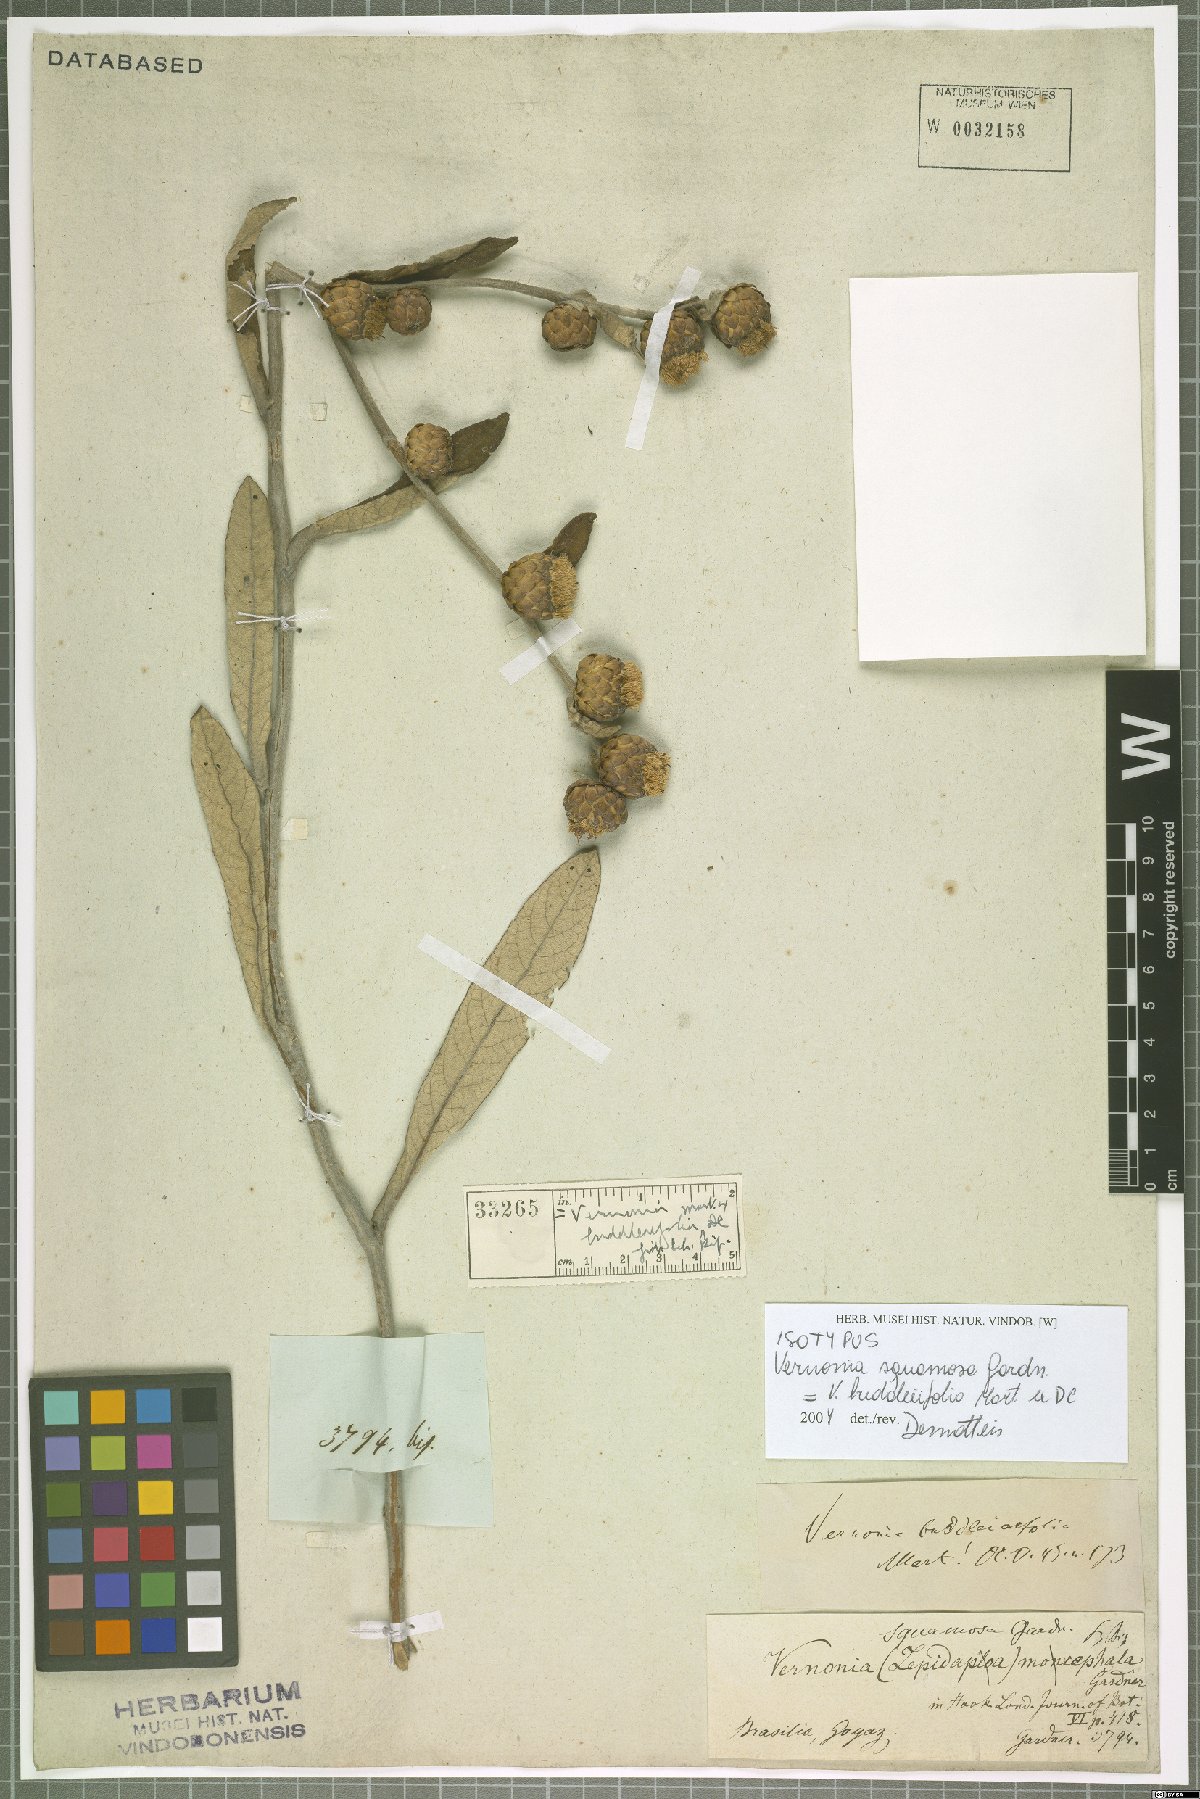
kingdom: Plantae
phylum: Tracheophyta
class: Magnoliopsida
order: Asterales
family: Asteraceae
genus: Lessingianthus
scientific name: Lessingianthus buddlejifolius
